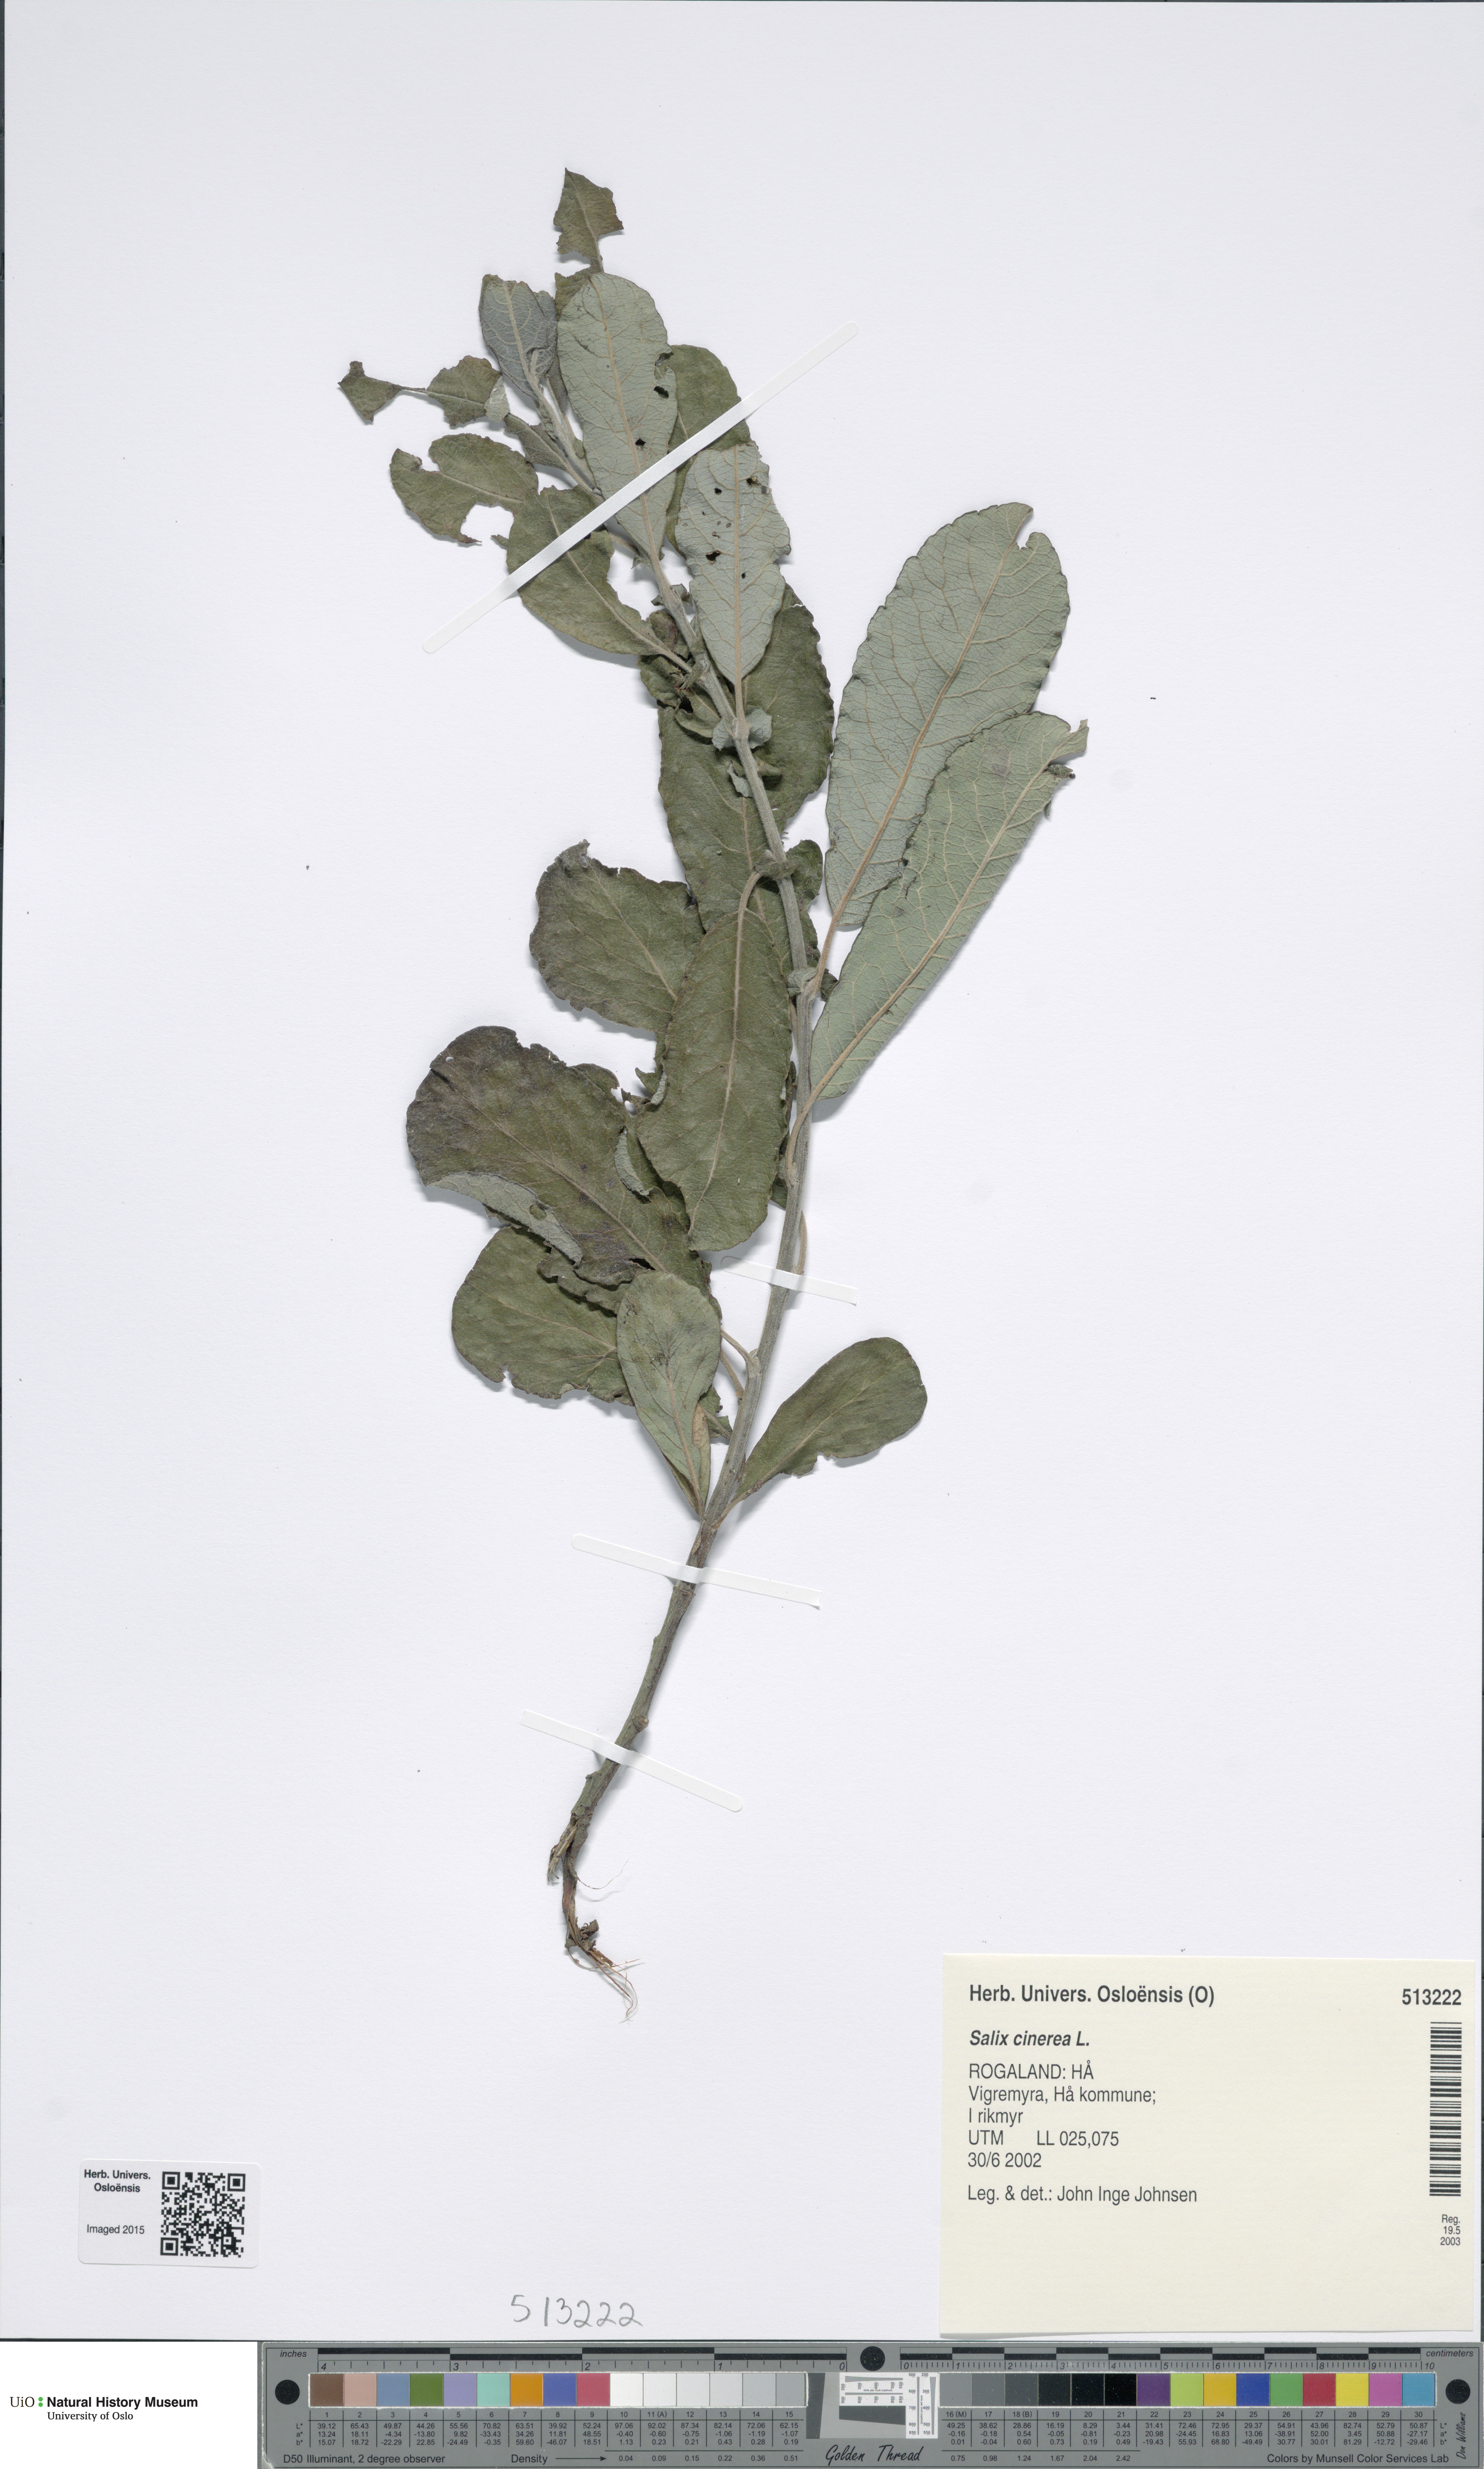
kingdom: Plantae
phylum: Tracheophyta
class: Magnoliopsida
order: Malpighiales
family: Salicaceae
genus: Salix
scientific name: Salix cinerea
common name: Common sallow
